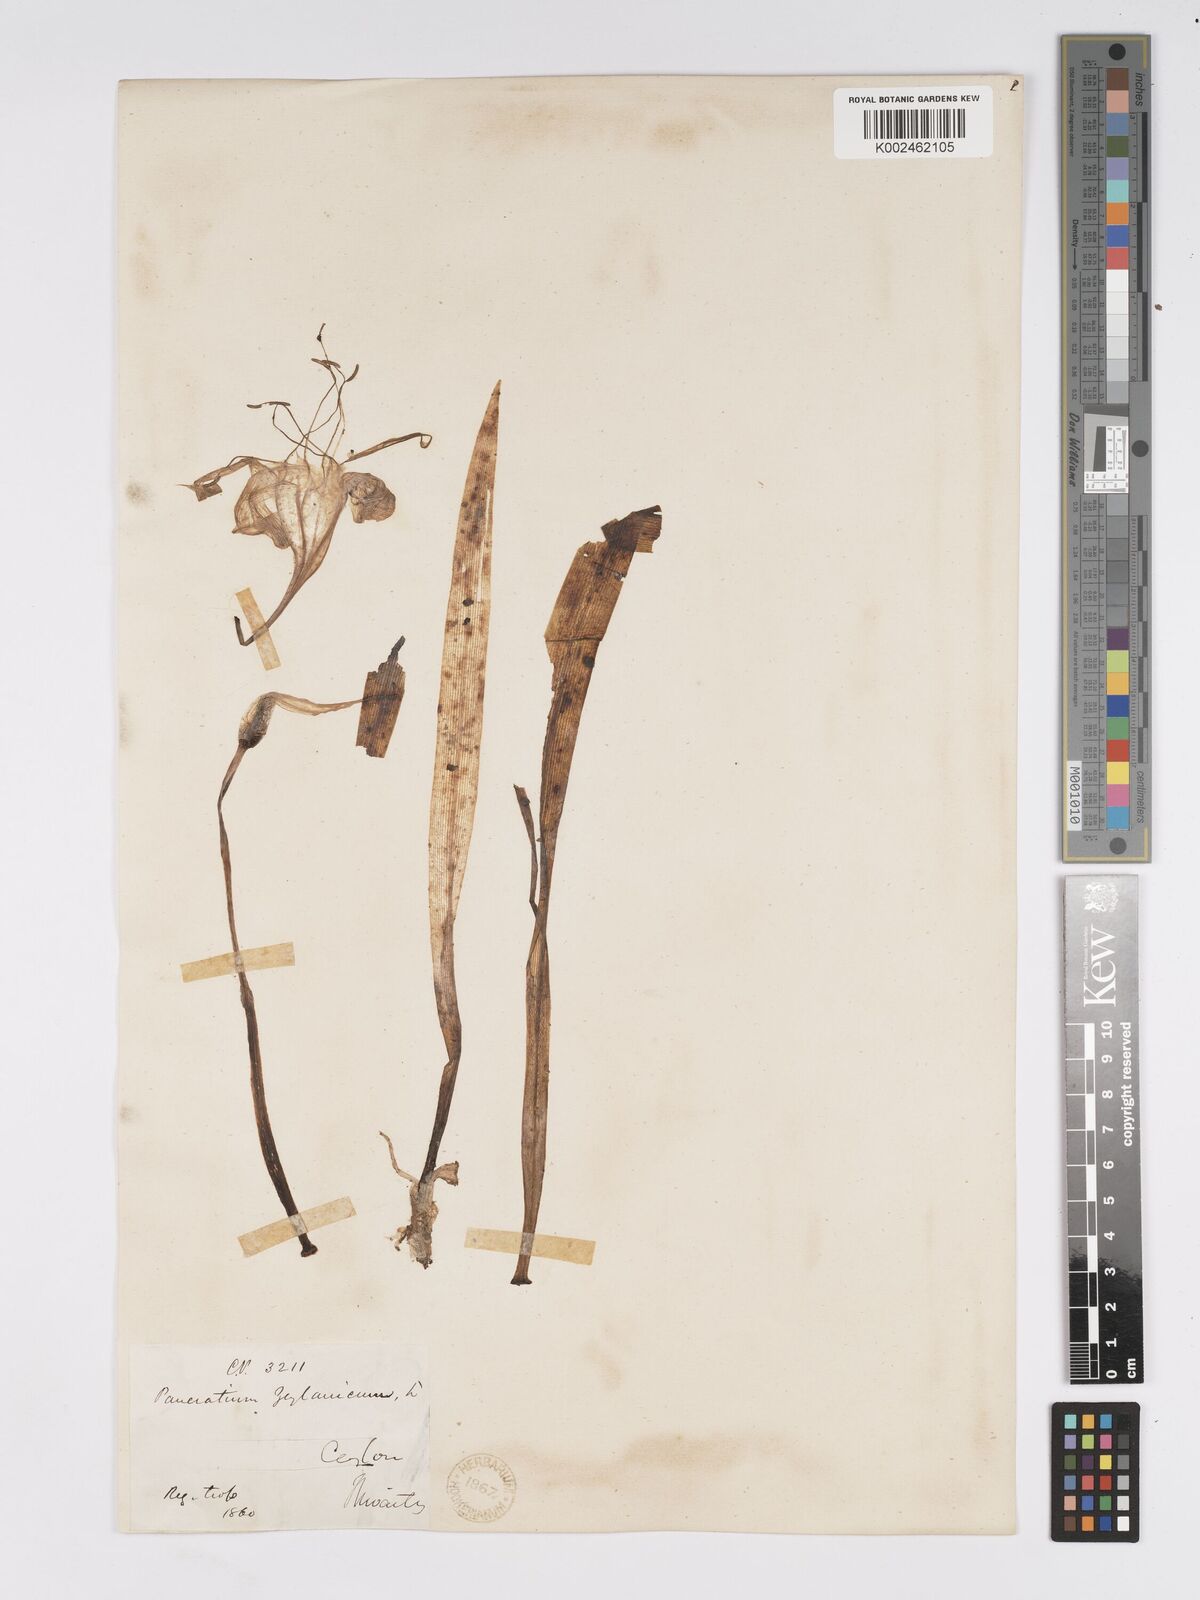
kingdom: Plantae
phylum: Tracheophyta
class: Liliopsida
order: Asparagales
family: Amaryllidaceae
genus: Pancratium
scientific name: Pancratium zeylanicum
